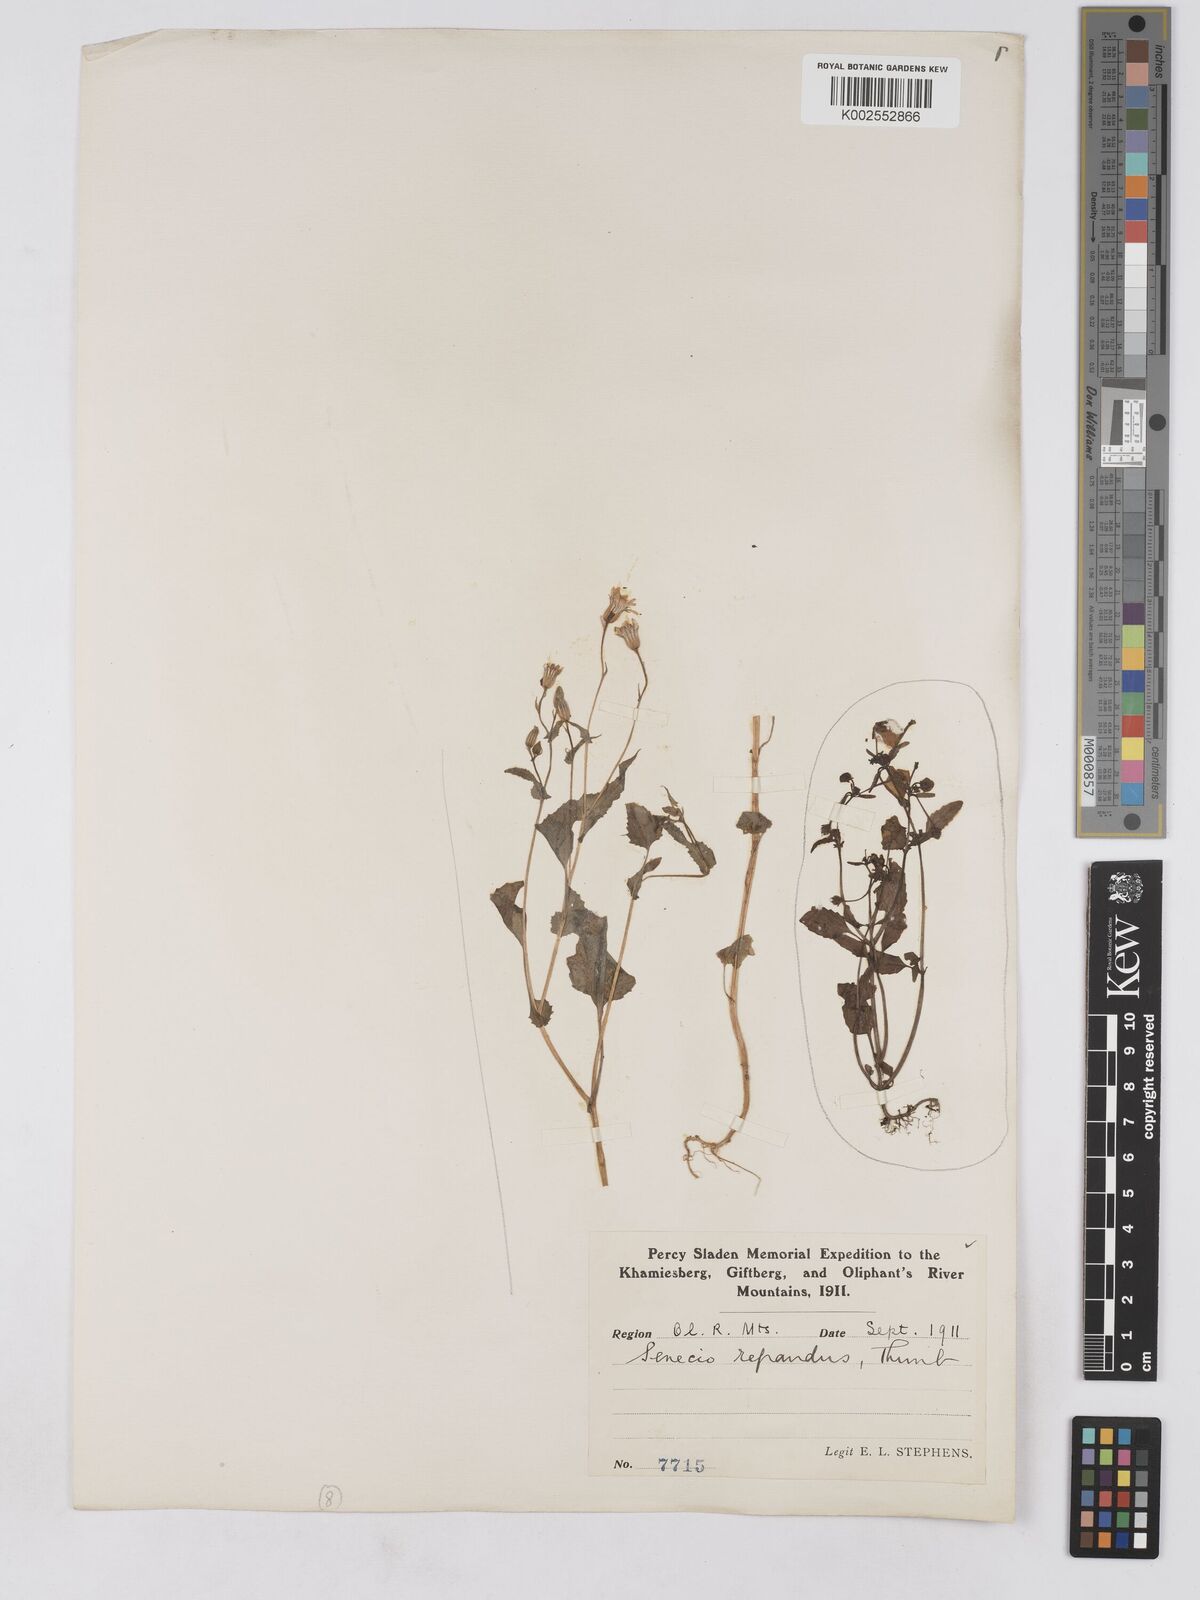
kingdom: Plantae
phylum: Tracheophyta
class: Magnoliopsida
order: Asterales
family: Asteraceae
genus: Senecio
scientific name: Senecio repandus
